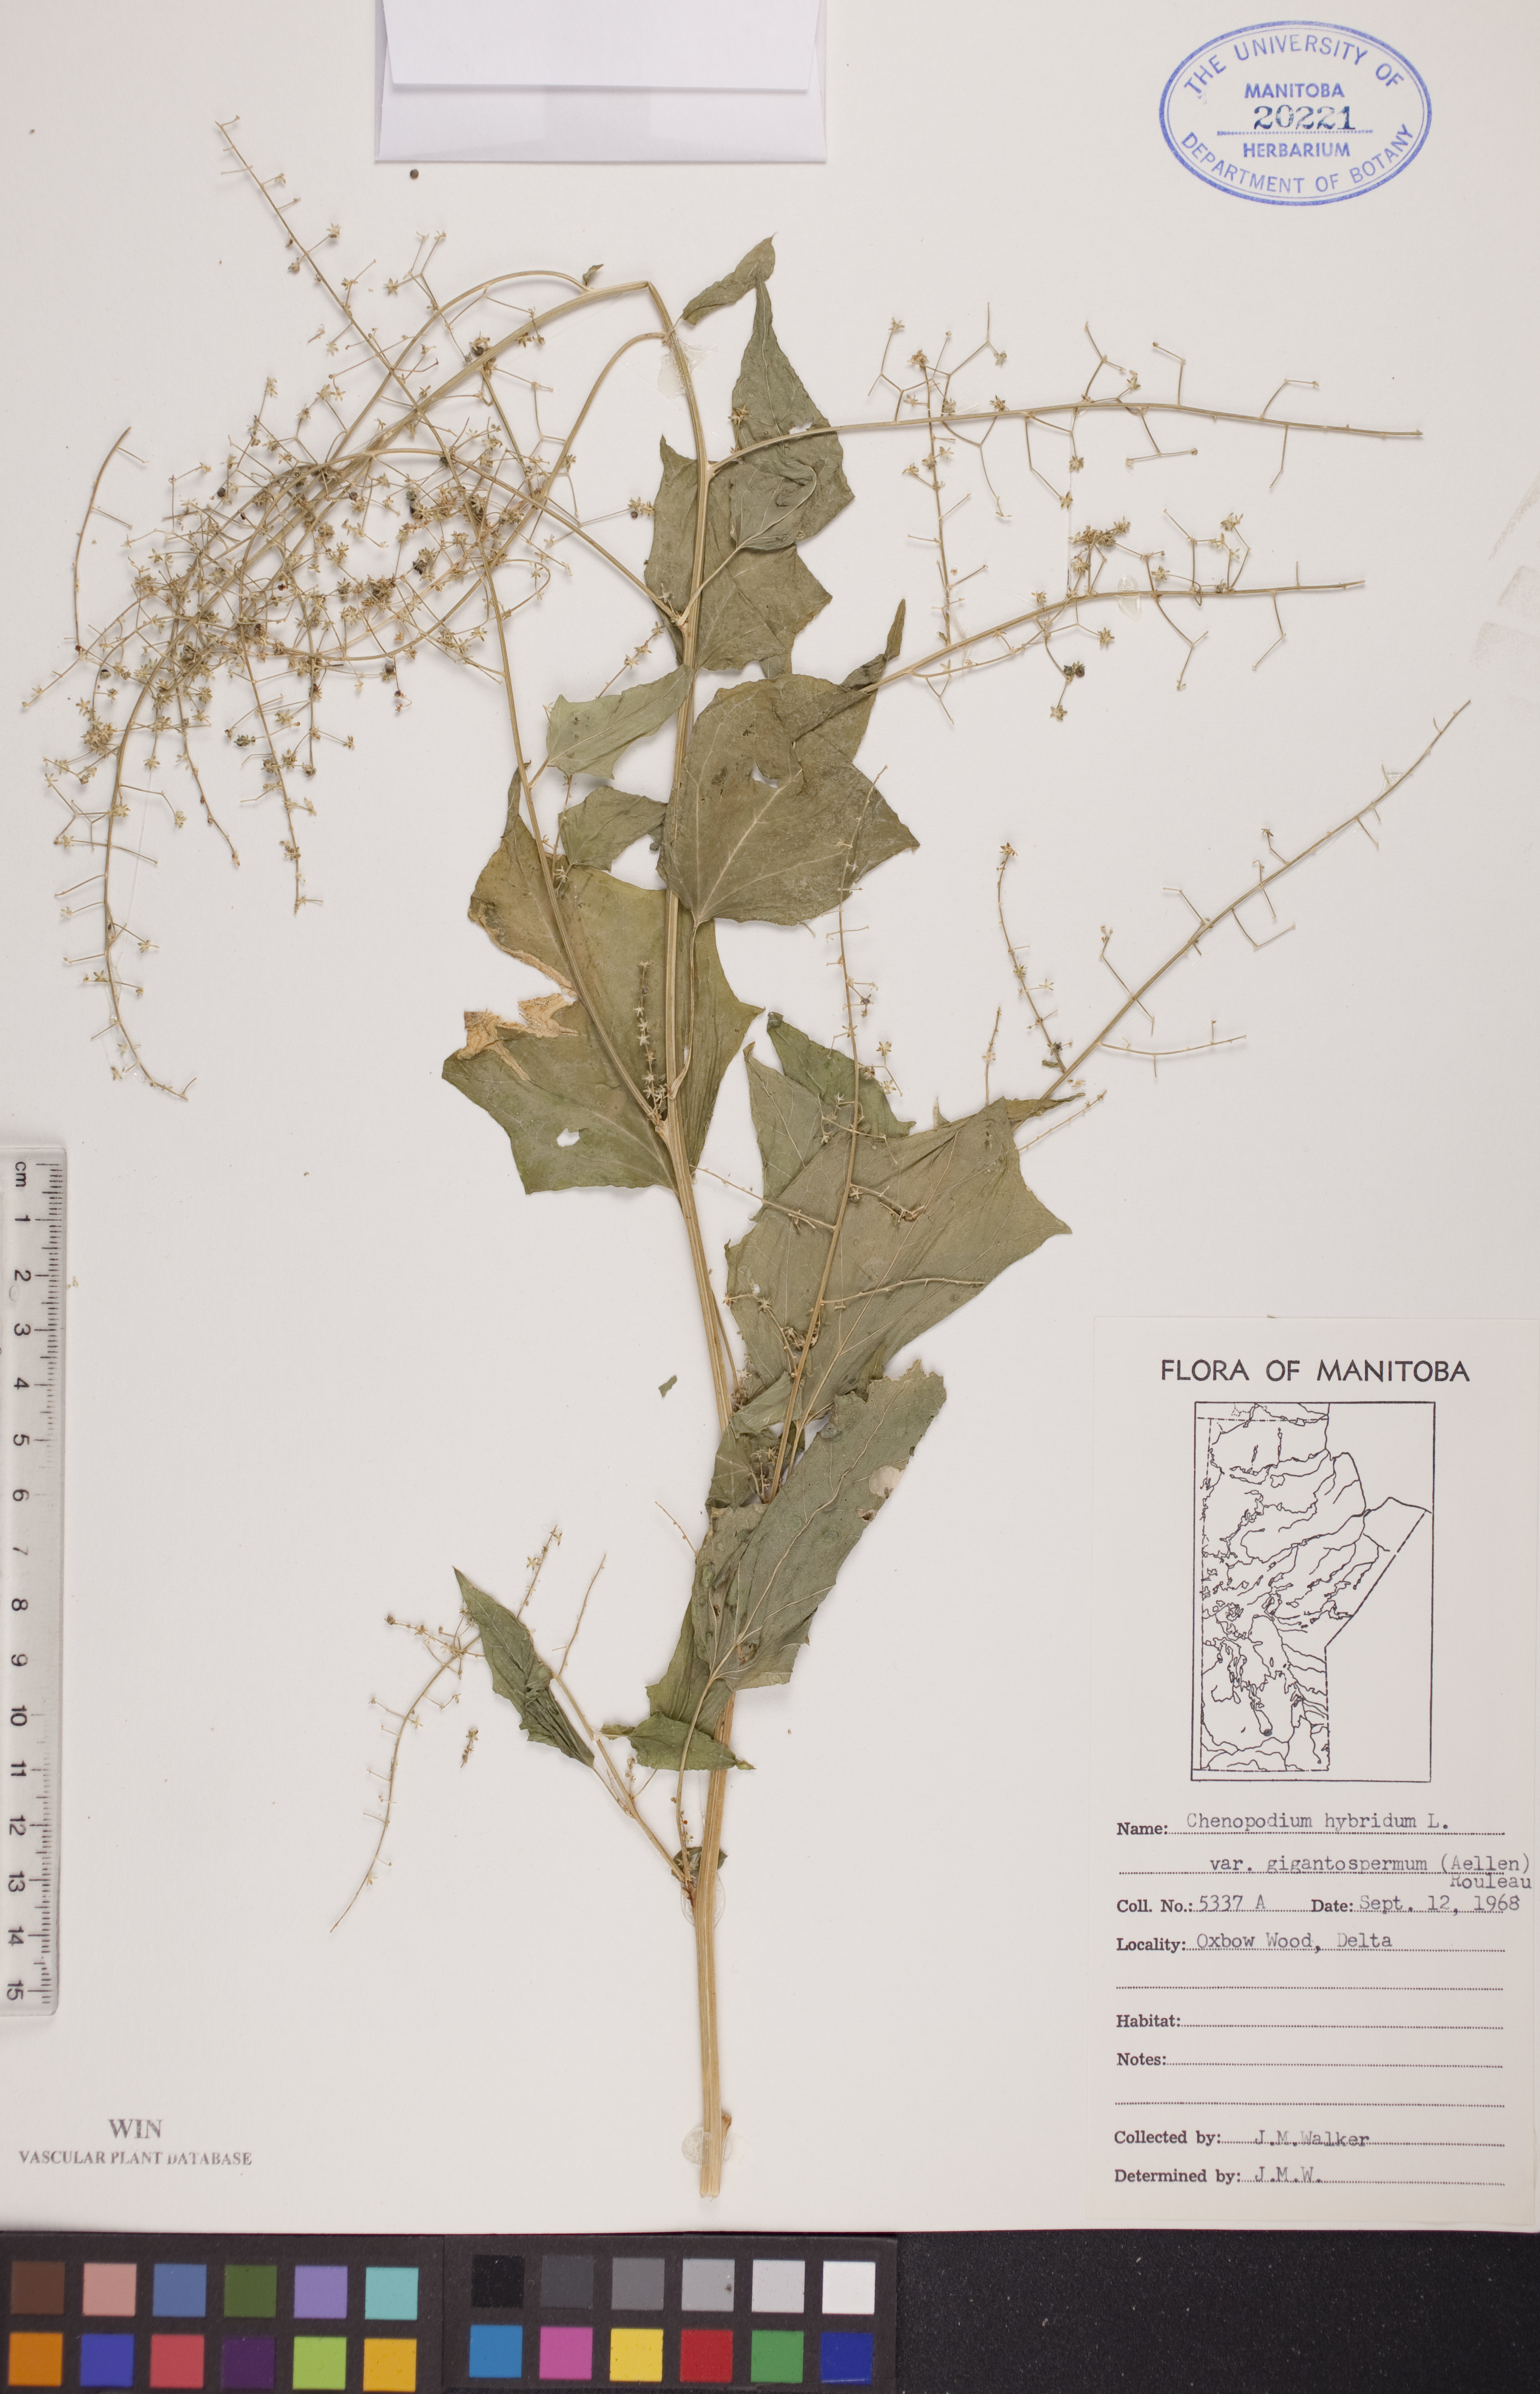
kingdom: Plantae
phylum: Tracheophyta
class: Magnoliopsida
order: Caryophyllales
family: Amaranthaceae
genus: Chenopodiastrum
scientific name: Chenopodiastrum simplex
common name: Large-seed goosefoot
